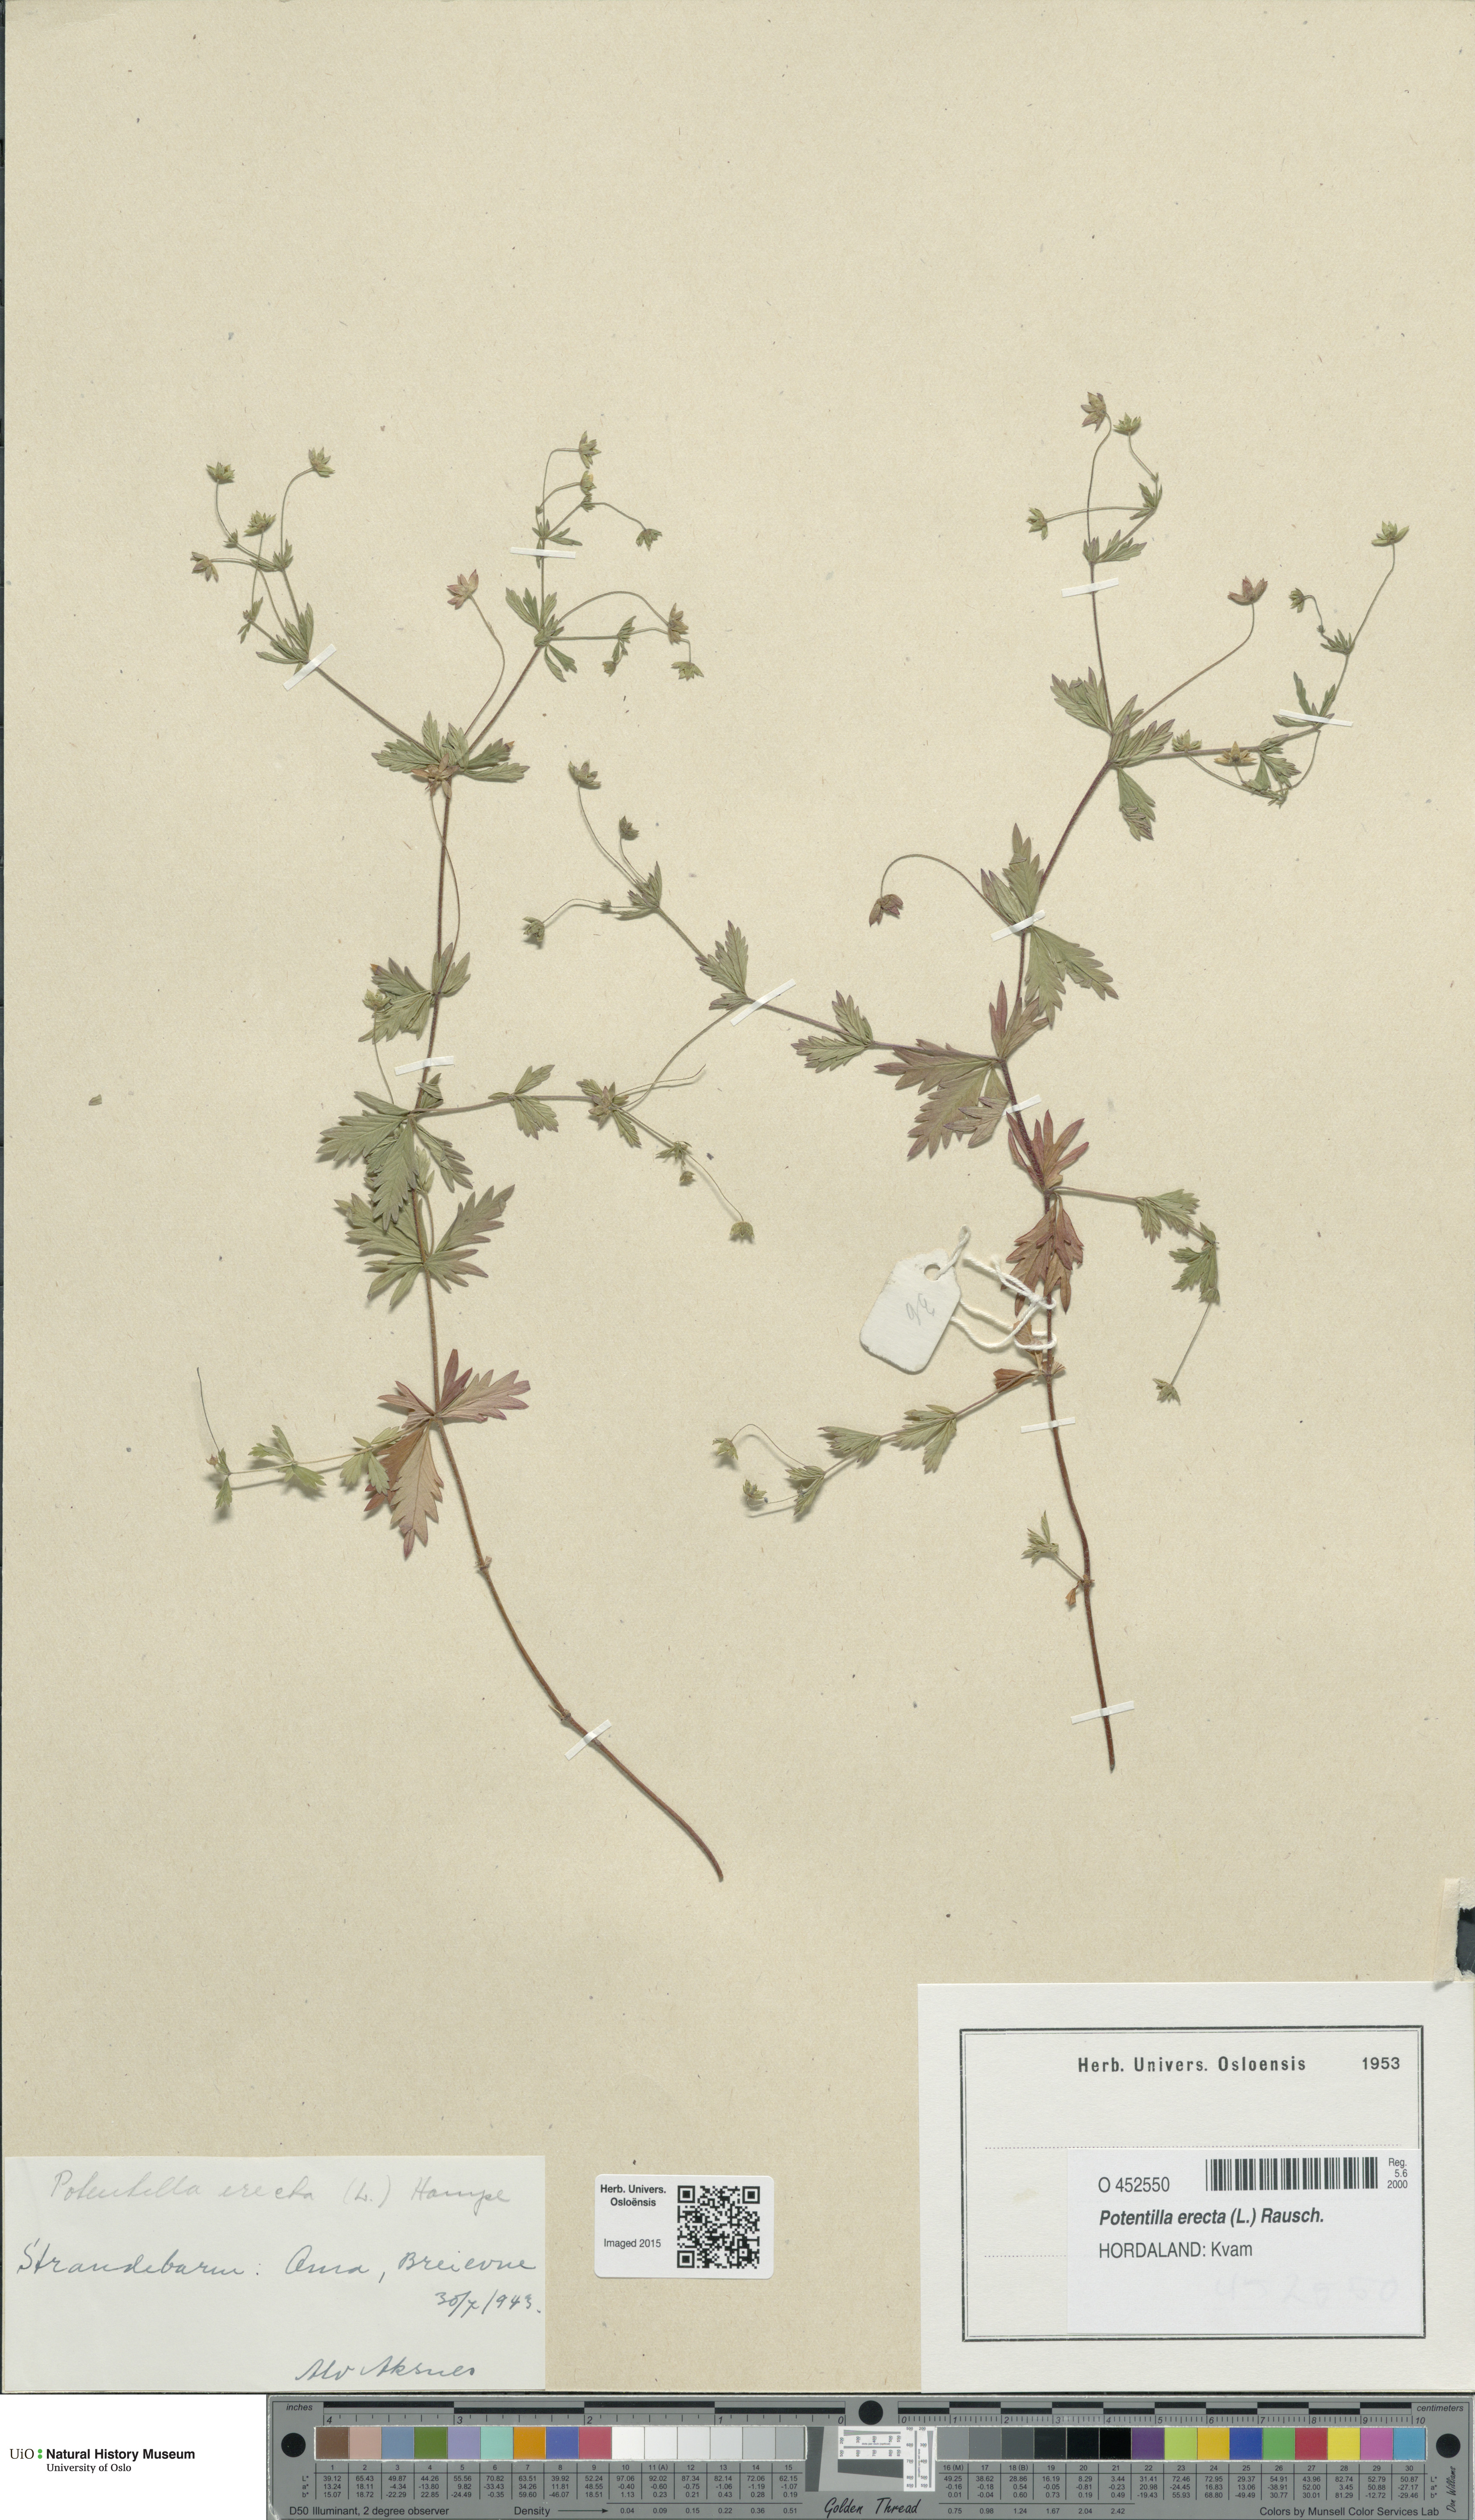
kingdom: Plantae
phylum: Tracheophyta
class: Magnoliopsida
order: Rosales
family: Rosaceae
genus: Potentilla
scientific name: Potentilla erecta
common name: Tormentil
